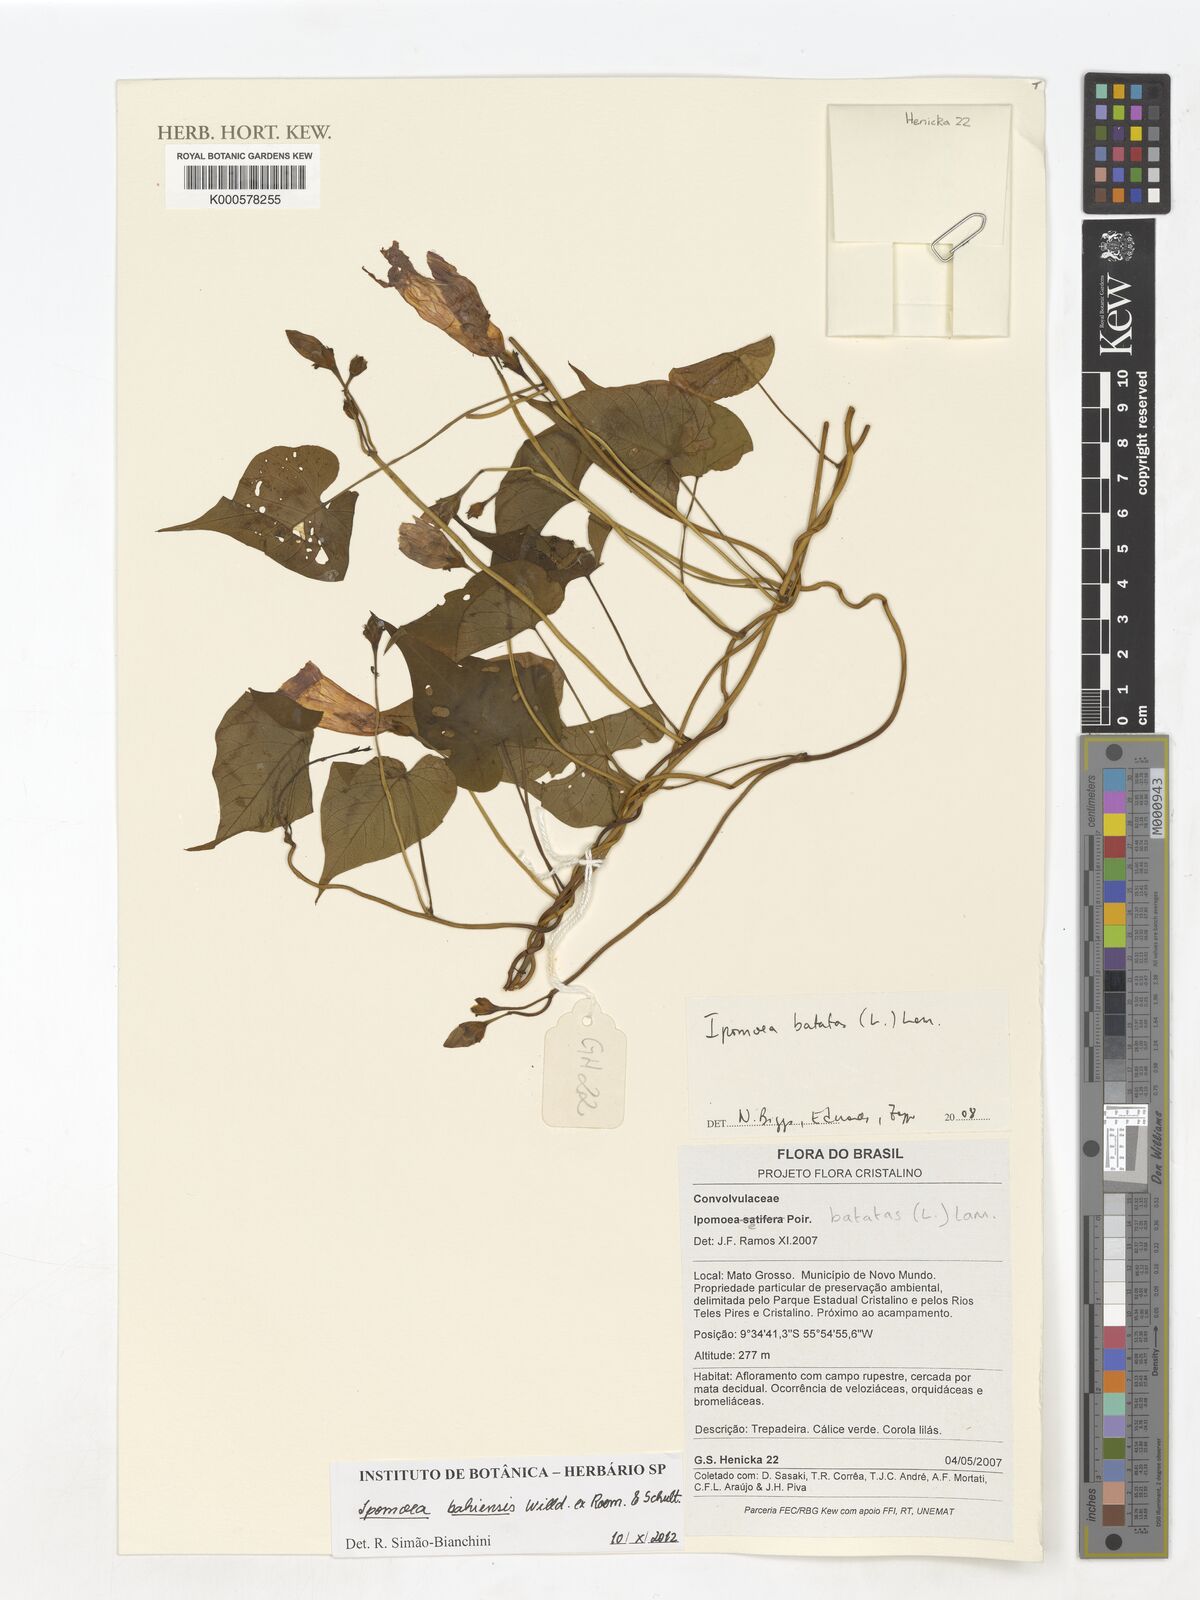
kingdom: Plantae
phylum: Tracheophyta
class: Magnoliopsida
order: Solanales
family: Convolvulaceae
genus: Ipomoea
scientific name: Ipomoea batatas
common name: Sweet-potato
